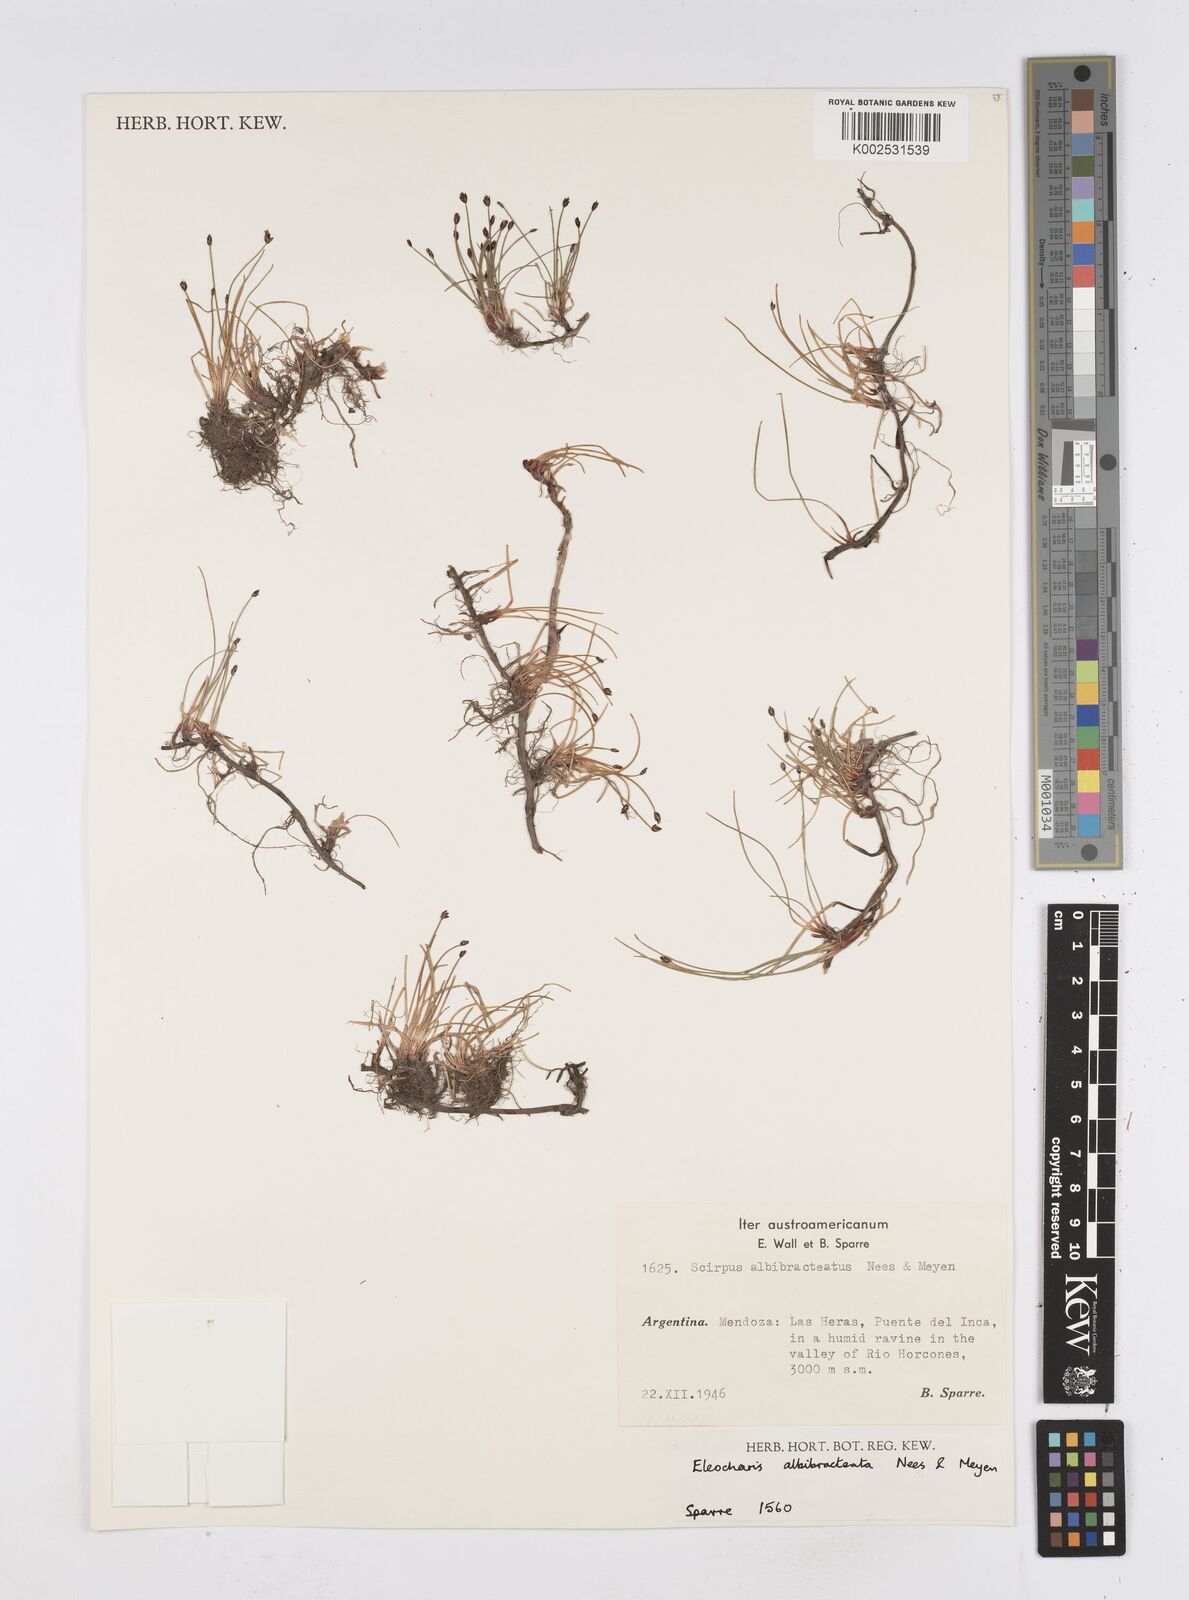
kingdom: Plantae
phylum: Tracheophyta
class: Liliopsida
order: Poales
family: Cyperaceae
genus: Eleocharis
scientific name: Eleocharis albibracteata
